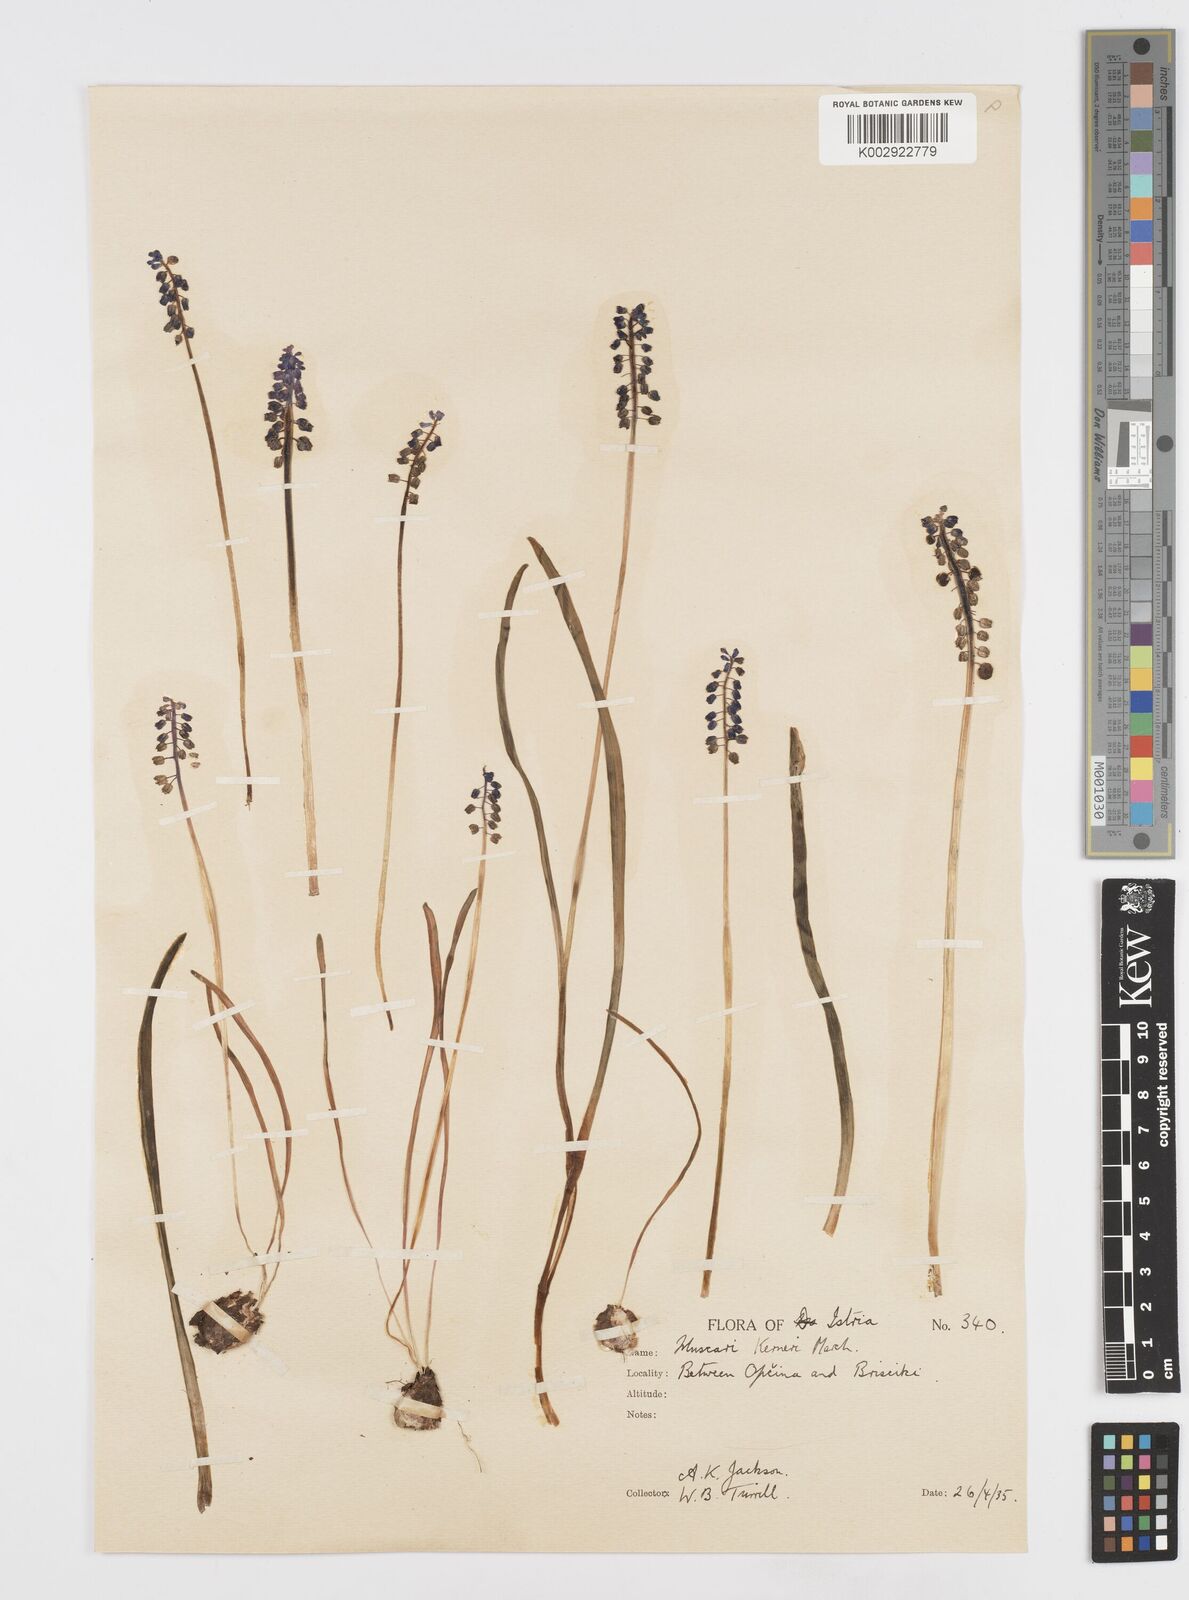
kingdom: Plantae
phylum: Tracheophyta
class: Liliopsida
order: Asparagales
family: Asparagaceae
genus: Muscari
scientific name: Muscari botryoides
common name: Compact grape-hyacinth
